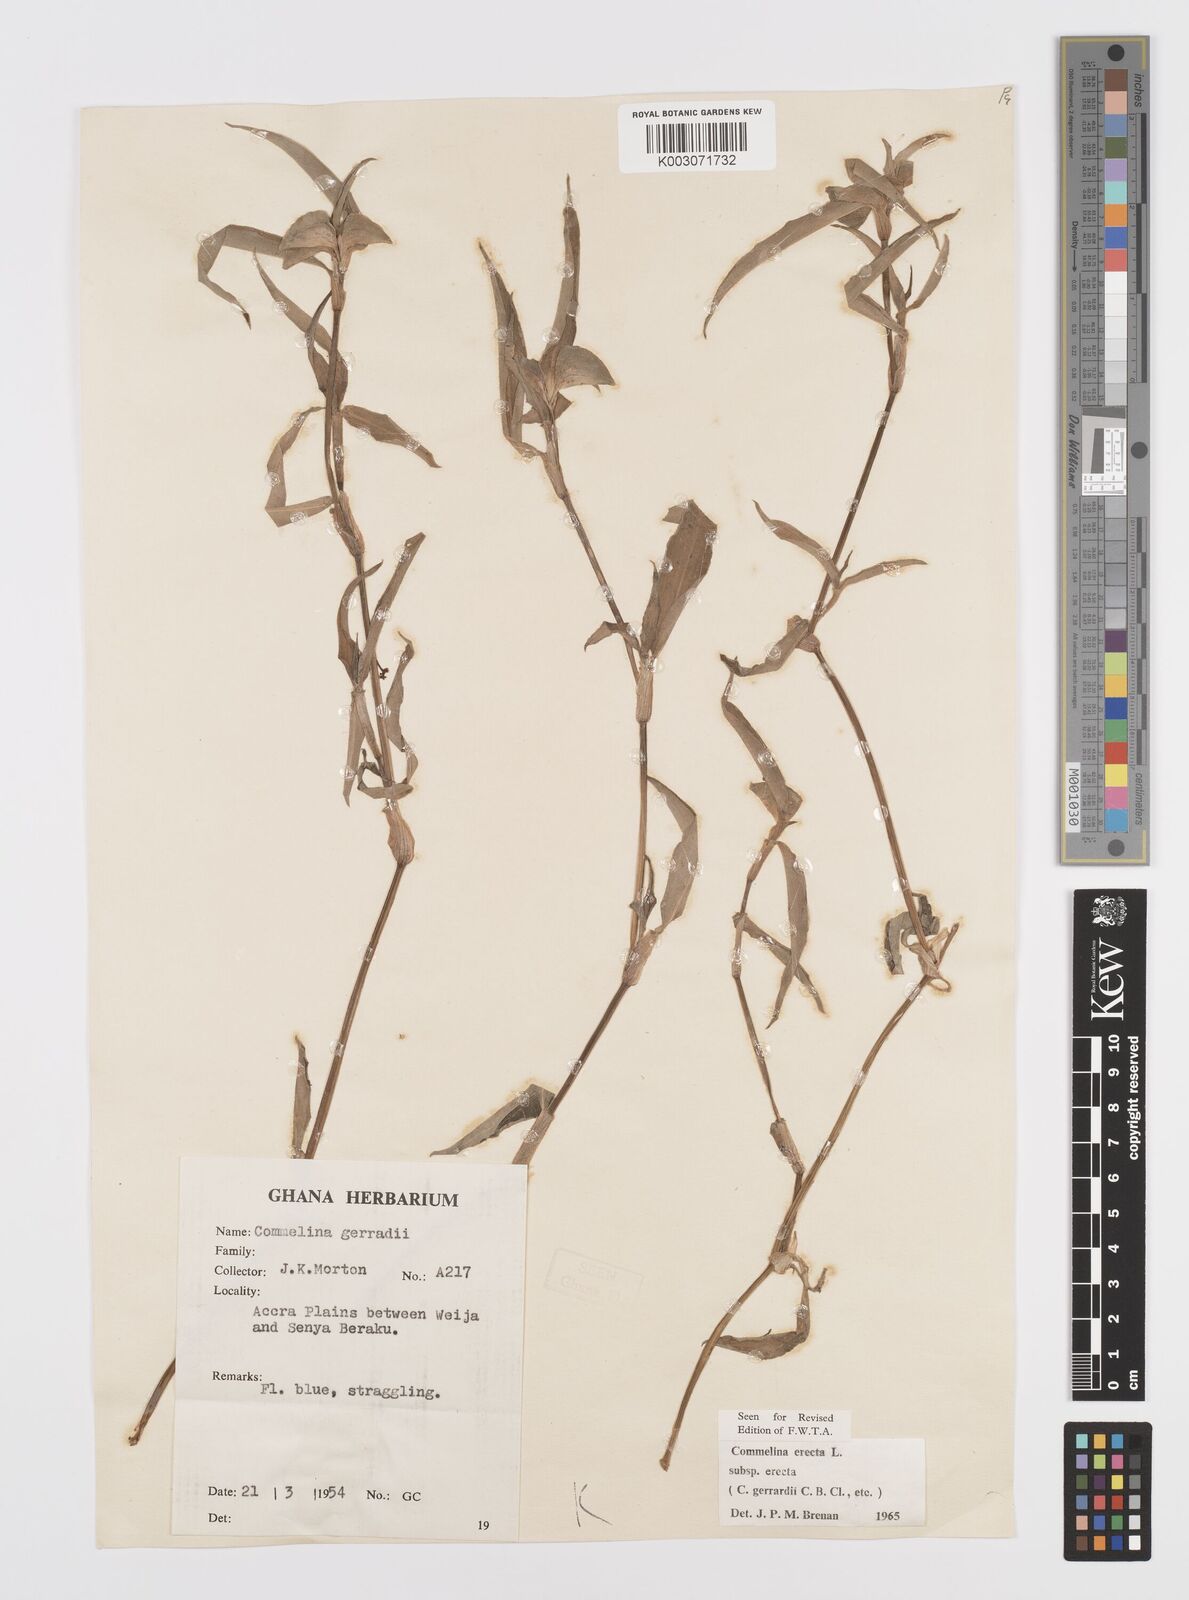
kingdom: Plantae
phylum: Tracheophyta
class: Liliopsida
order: Commelinales
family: Commelinaceae
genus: Commelina
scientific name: Commelina erecta
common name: Blousel blommetjie
